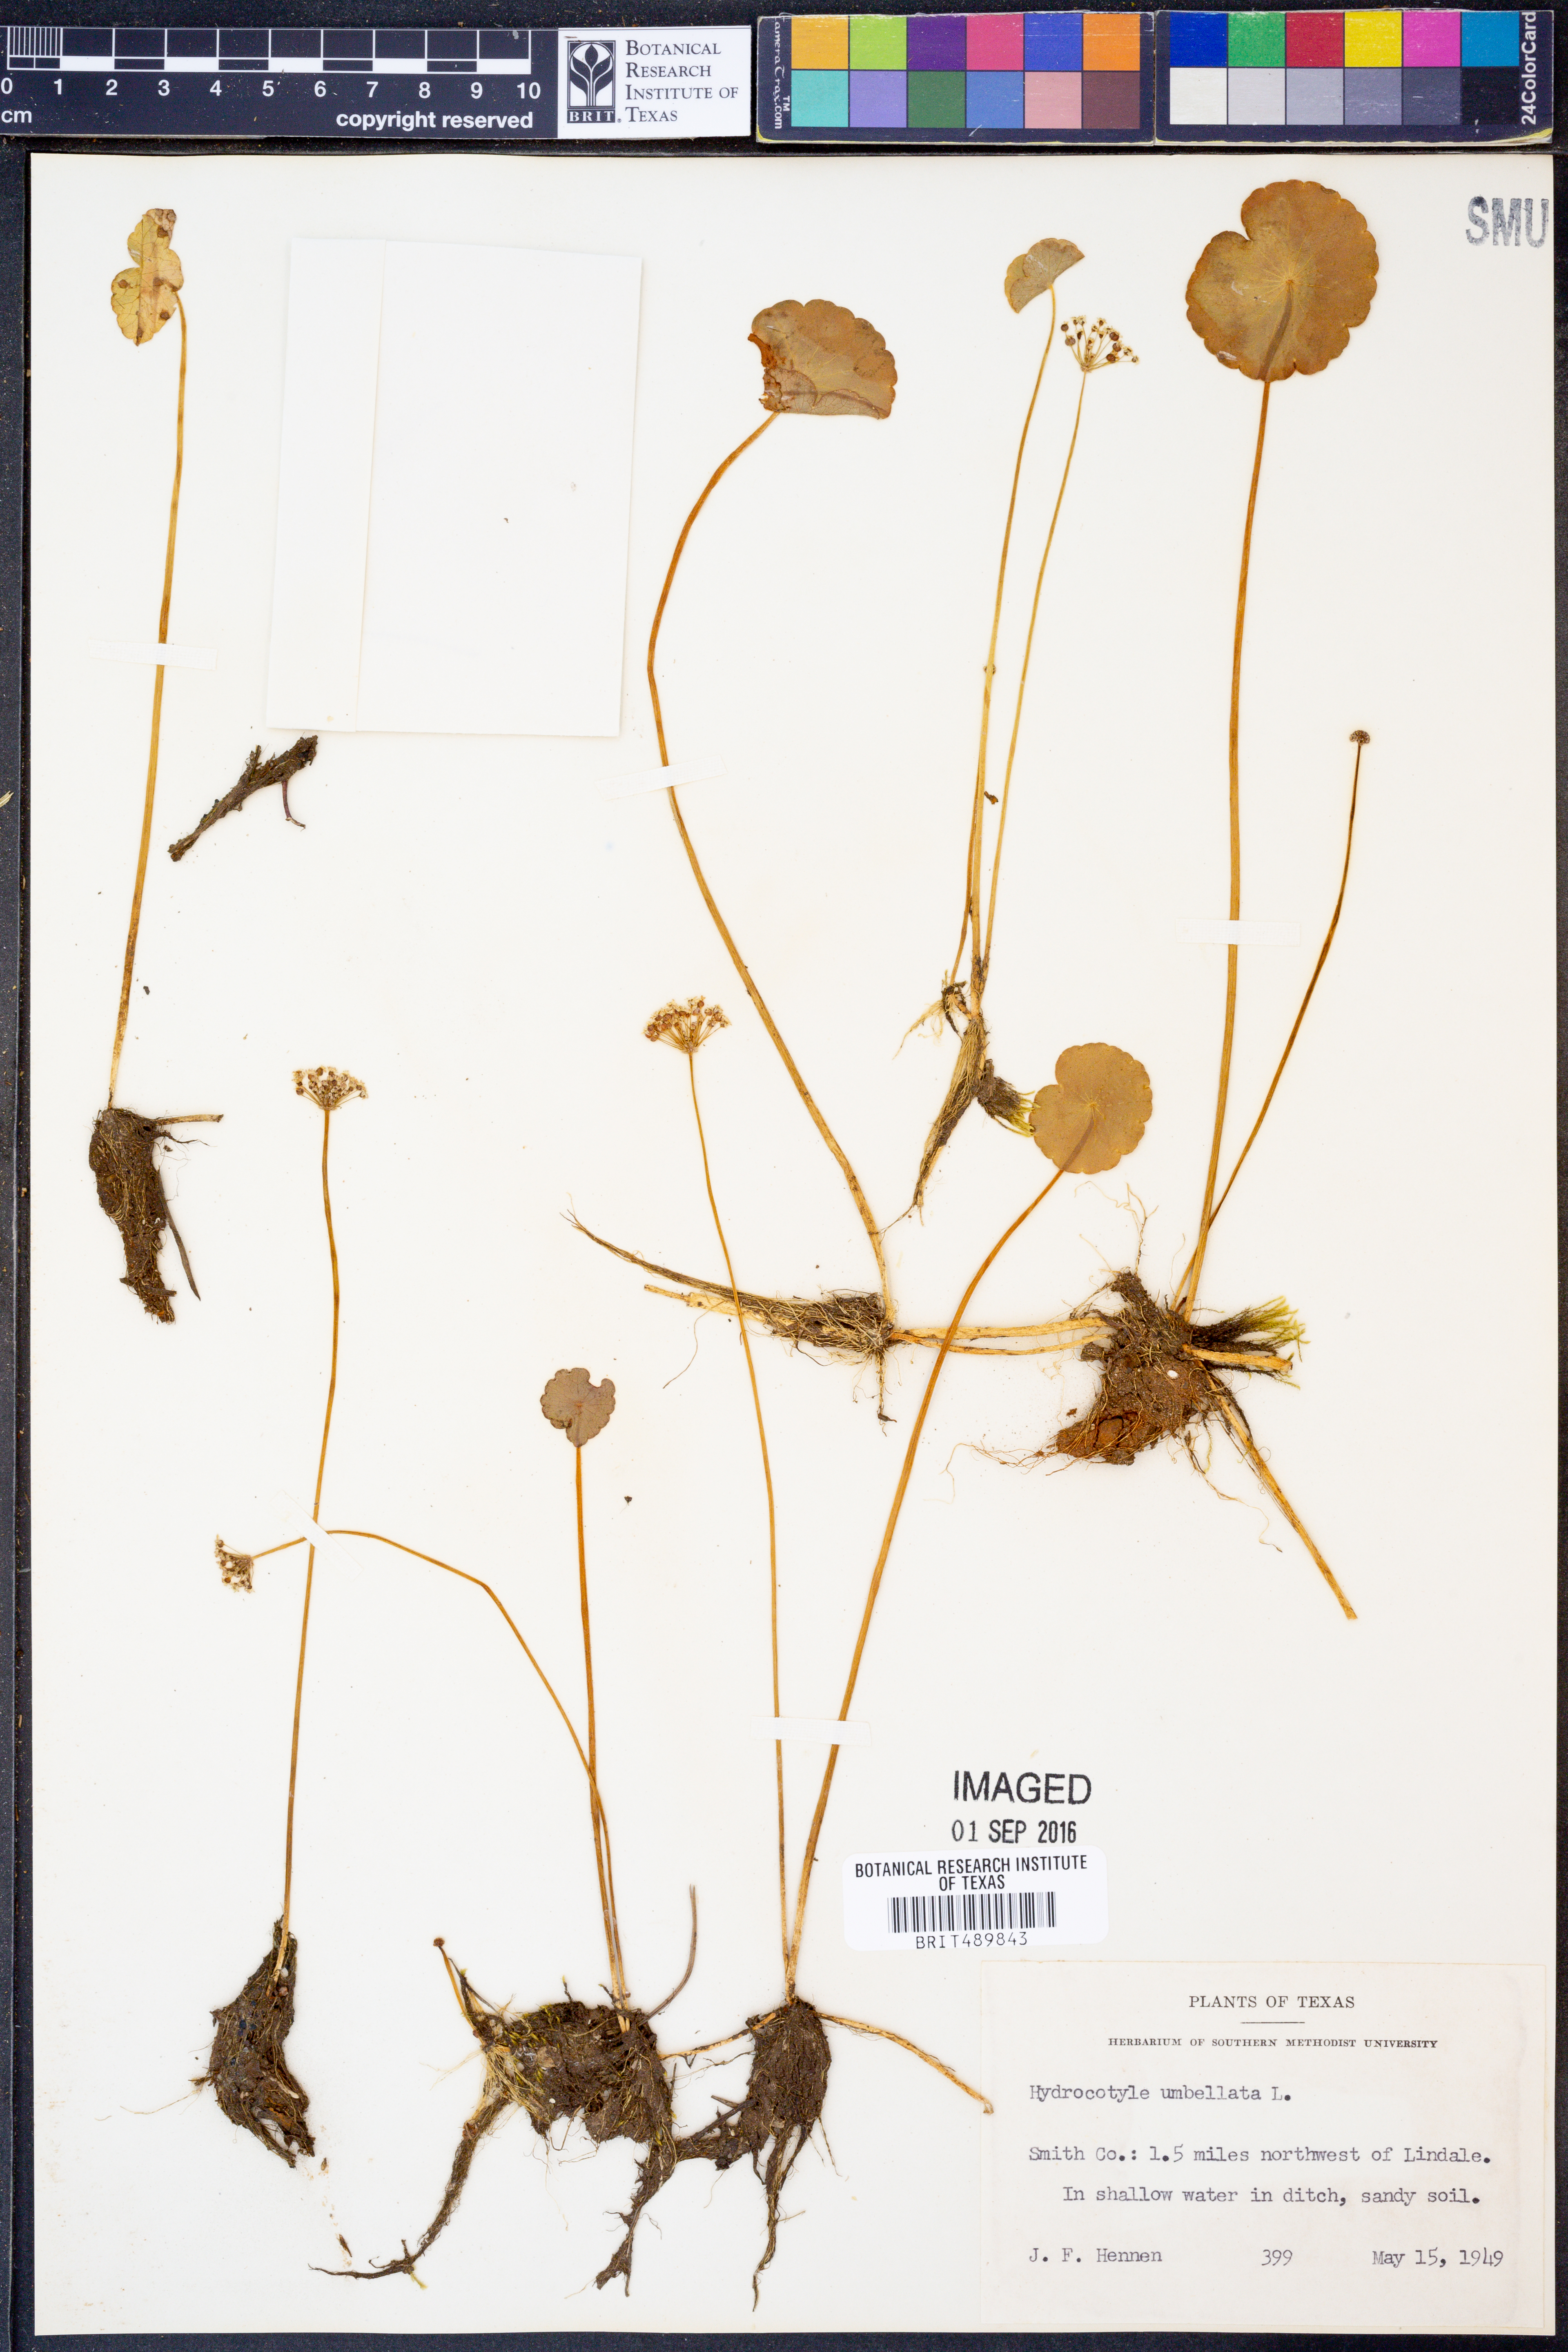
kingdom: Plantae
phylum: Tracheophyta
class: Magnoliopsida
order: Apiales
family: Araliaceae
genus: Hydrocotyle
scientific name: Hydrocotyle umbellata
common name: Water pennywort
